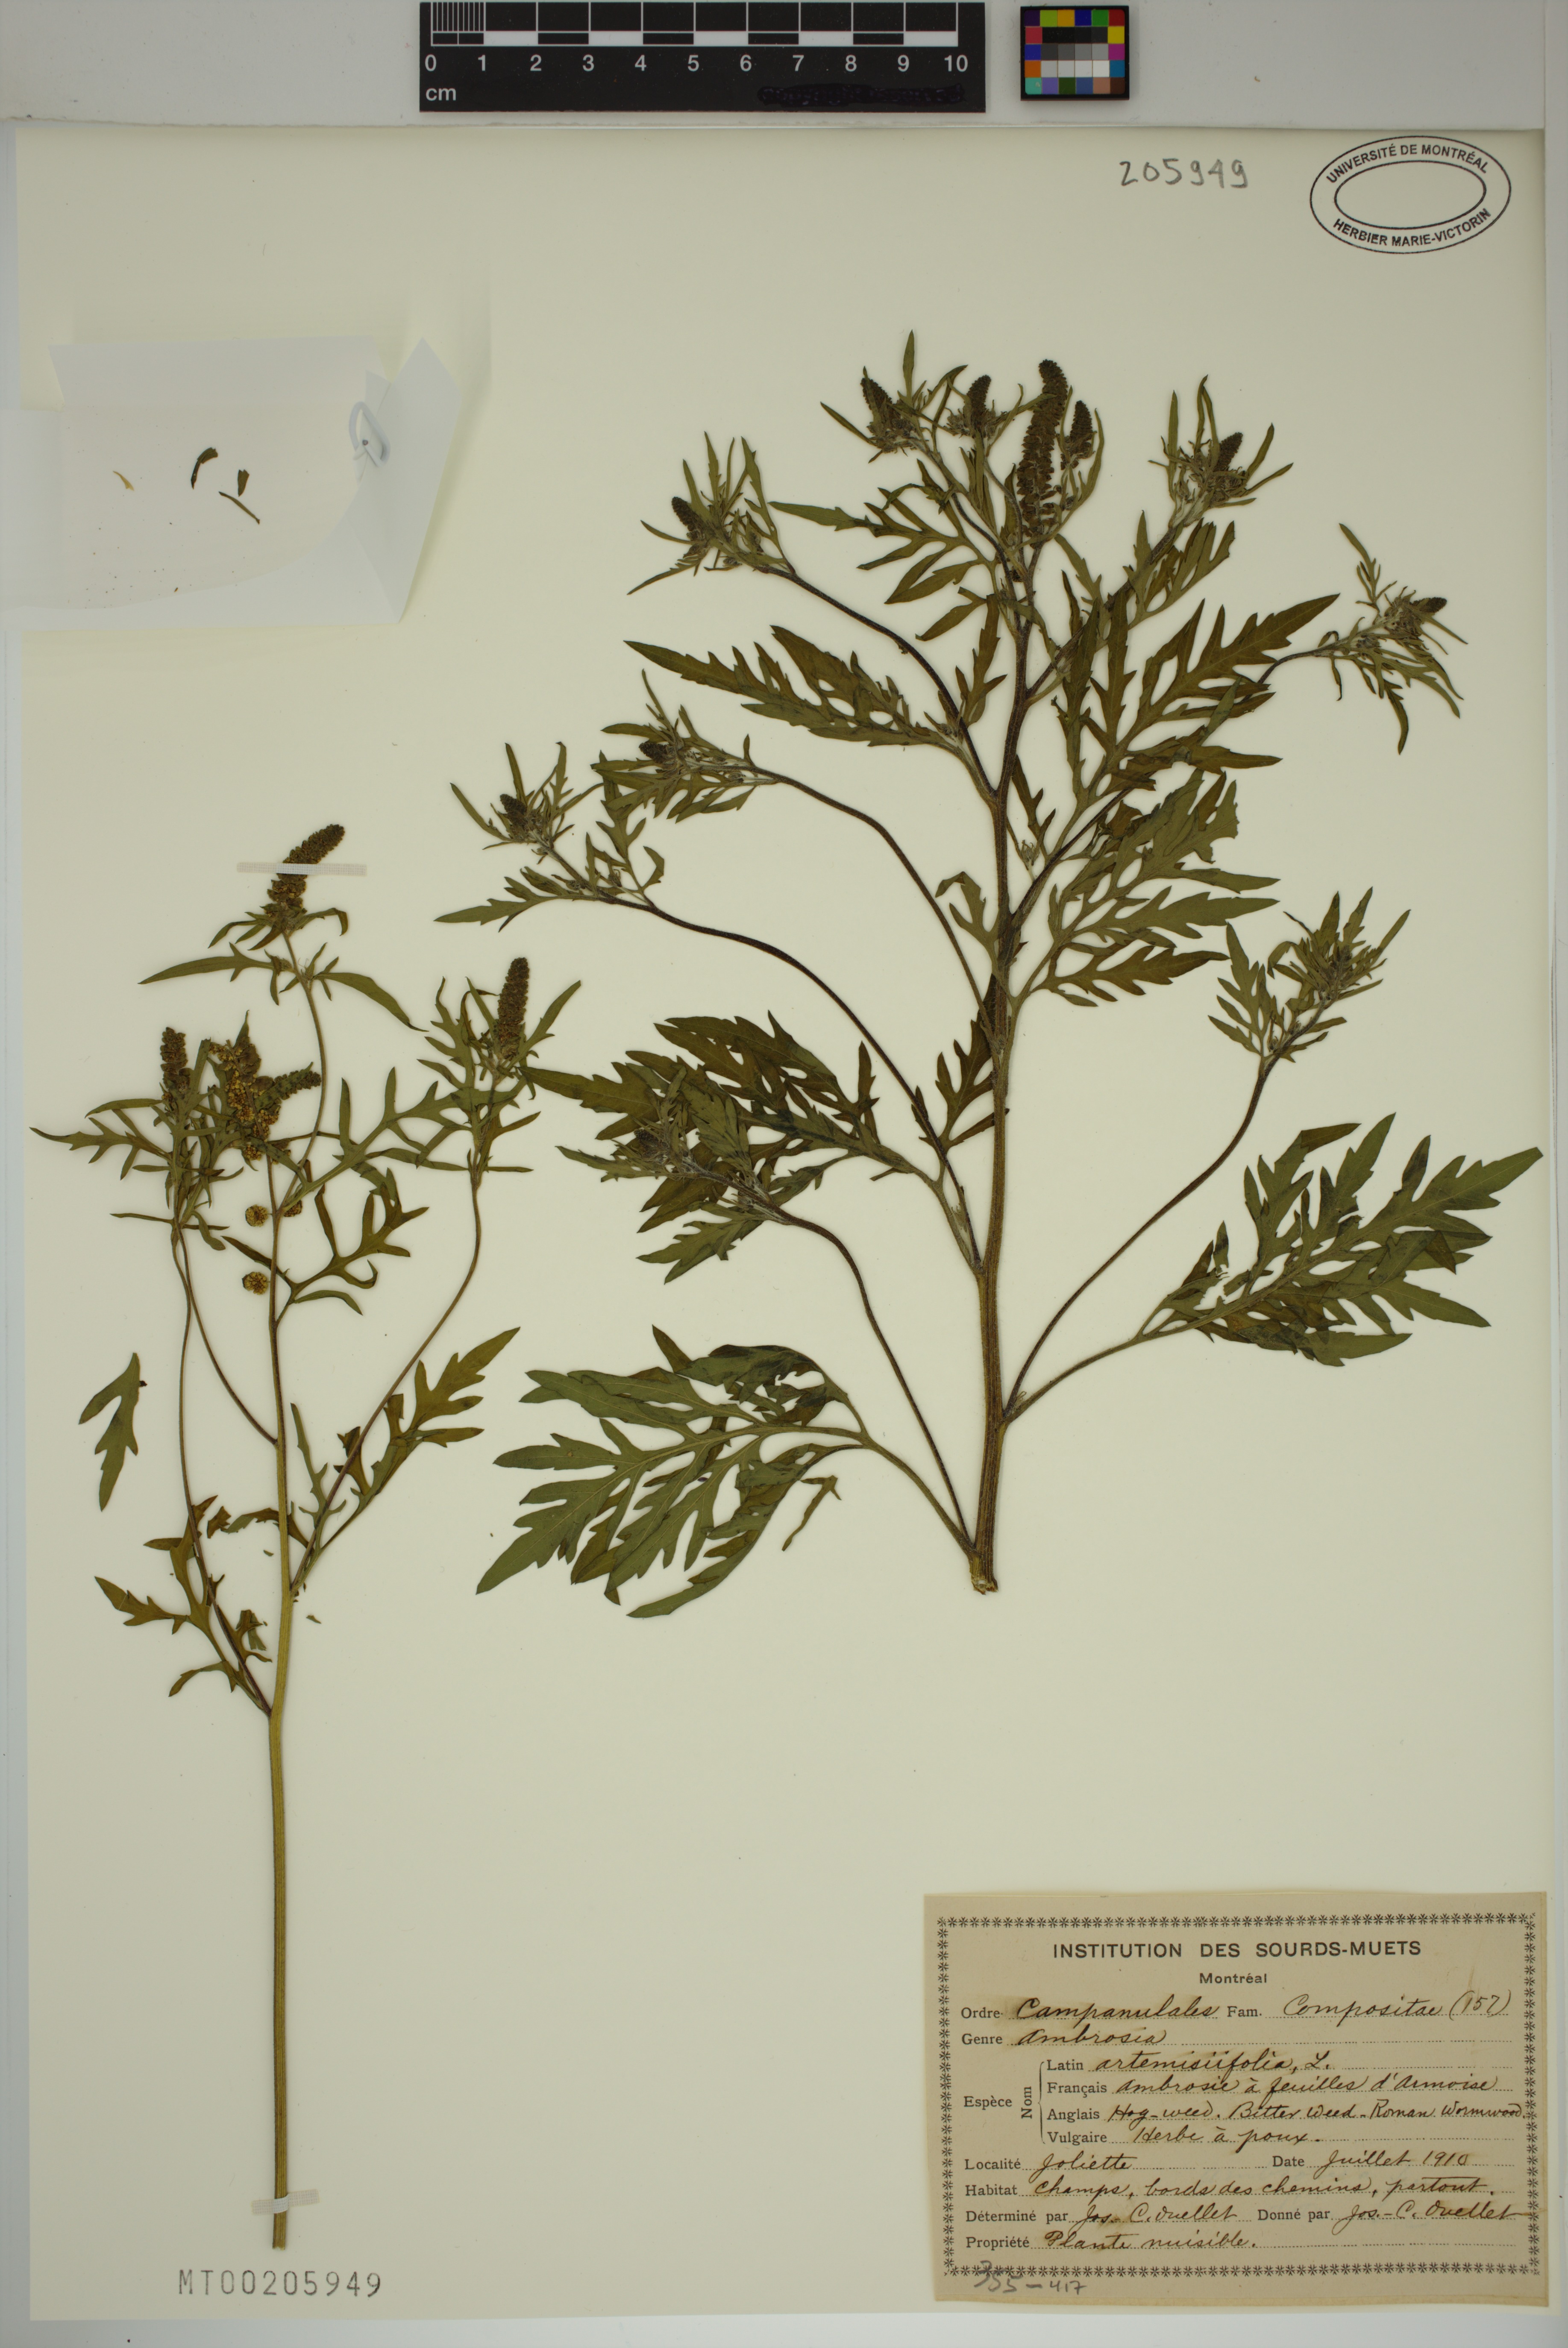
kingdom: Plantae
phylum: Tracheophyta
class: Magnoliopsida
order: Asterales
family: Asteraceae
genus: Ambrosia
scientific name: Ambrosia artemisiifolia
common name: Annual ragweed
